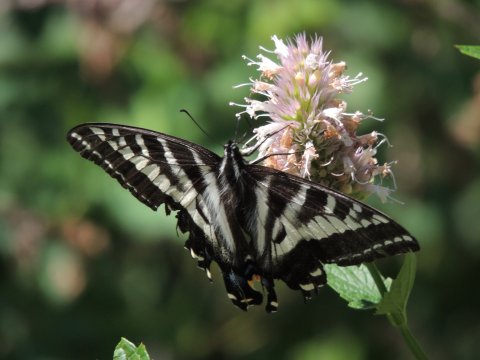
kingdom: Animalia
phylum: Arthropoda
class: Insecta
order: Lepidoptera
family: Papilionidae
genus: Pterourus
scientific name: Pterourus eurymedon
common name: Pale Swallowtail
